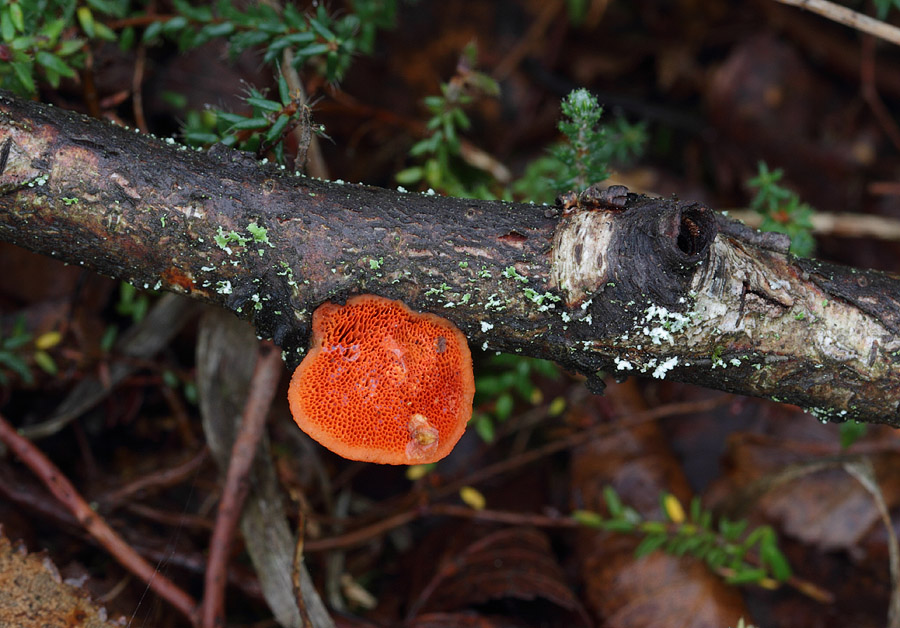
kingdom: Fungi
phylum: Basidiomycota
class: Agaricomycetes
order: Polyporales
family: Polyporaceae
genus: Trametes
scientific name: Trametes cinnabarina
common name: cinnoberporesvamp
